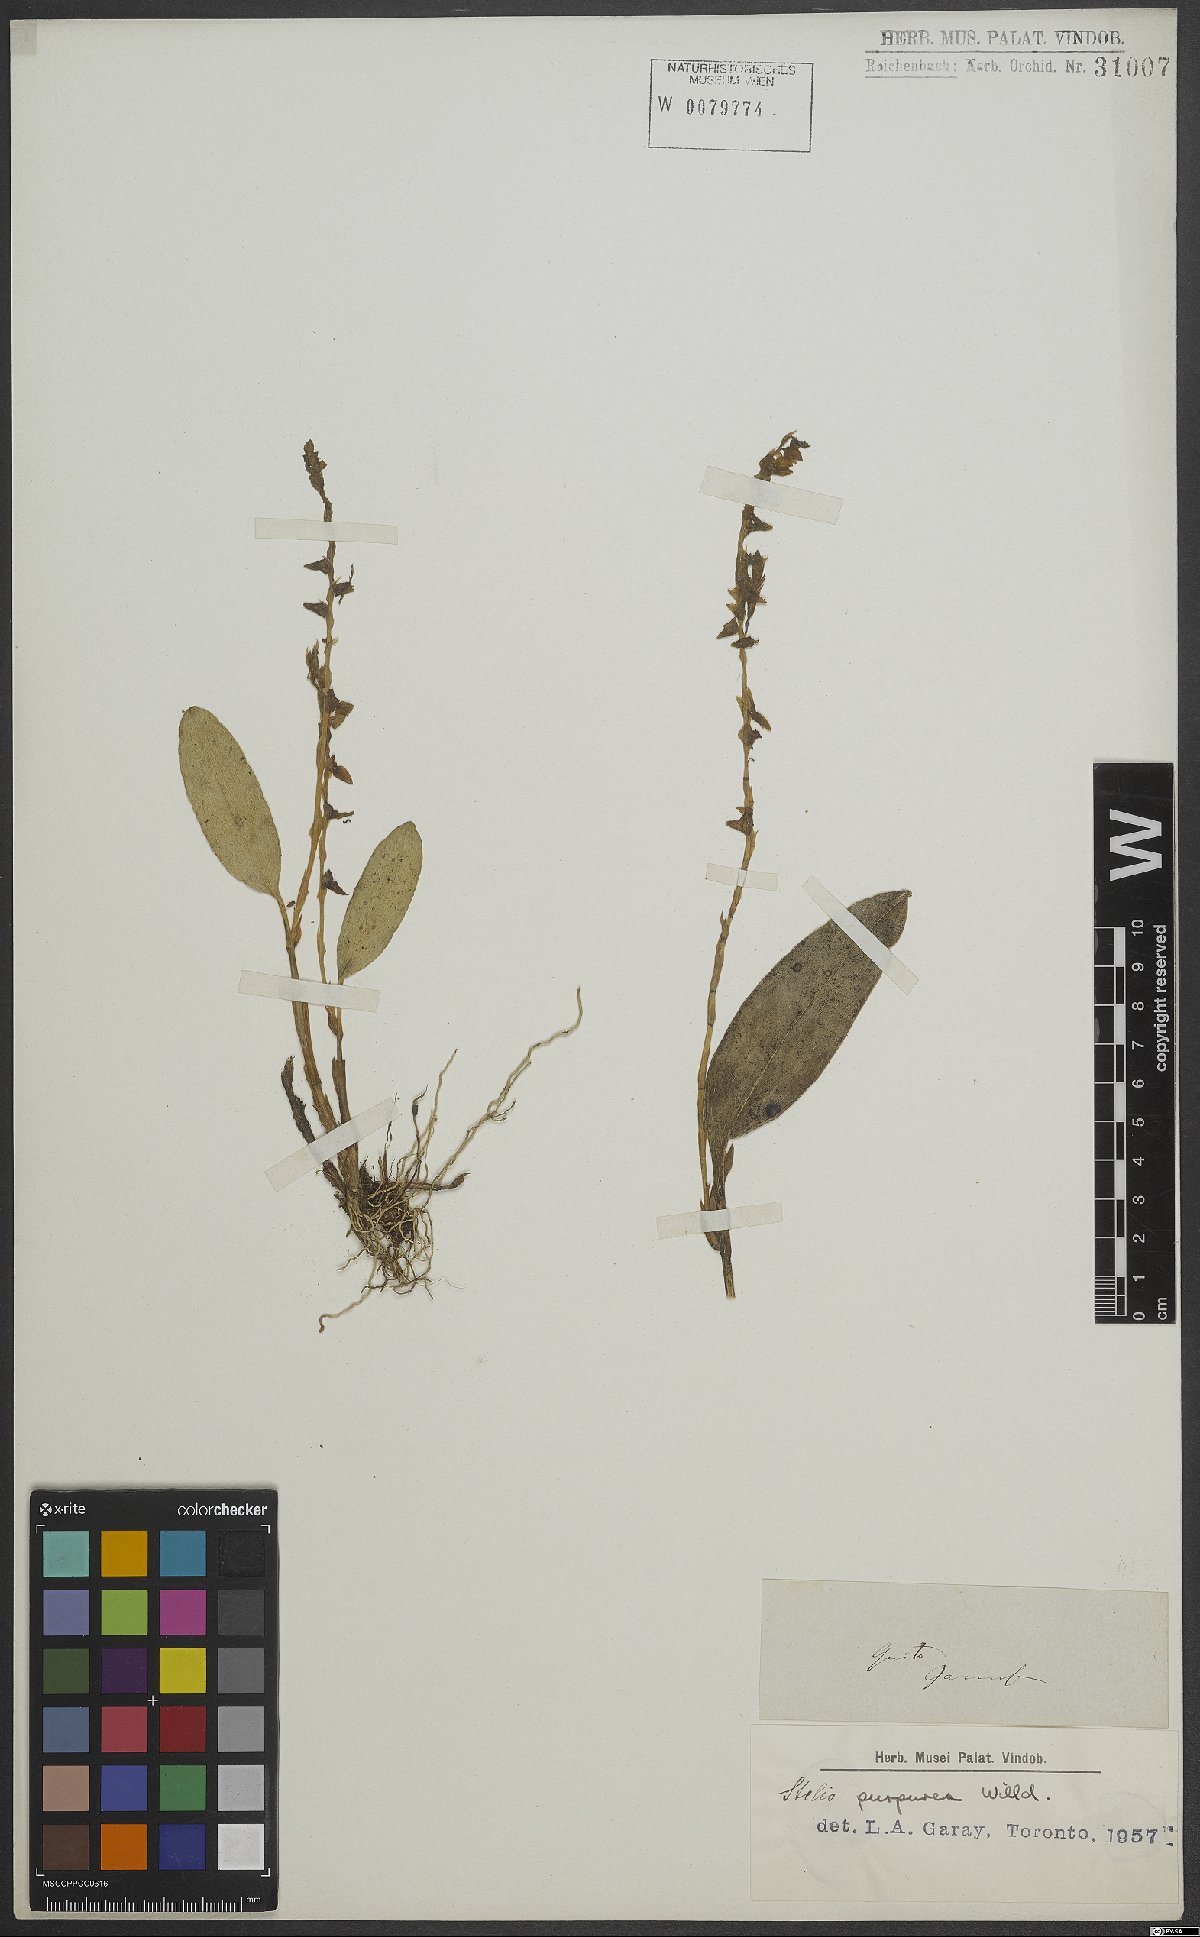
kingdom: Plantae
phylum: Tracheophyta
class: Liliopsida
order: Asparagales
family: Orchidaceae
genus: Stelis
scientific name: Stelis purpurea
